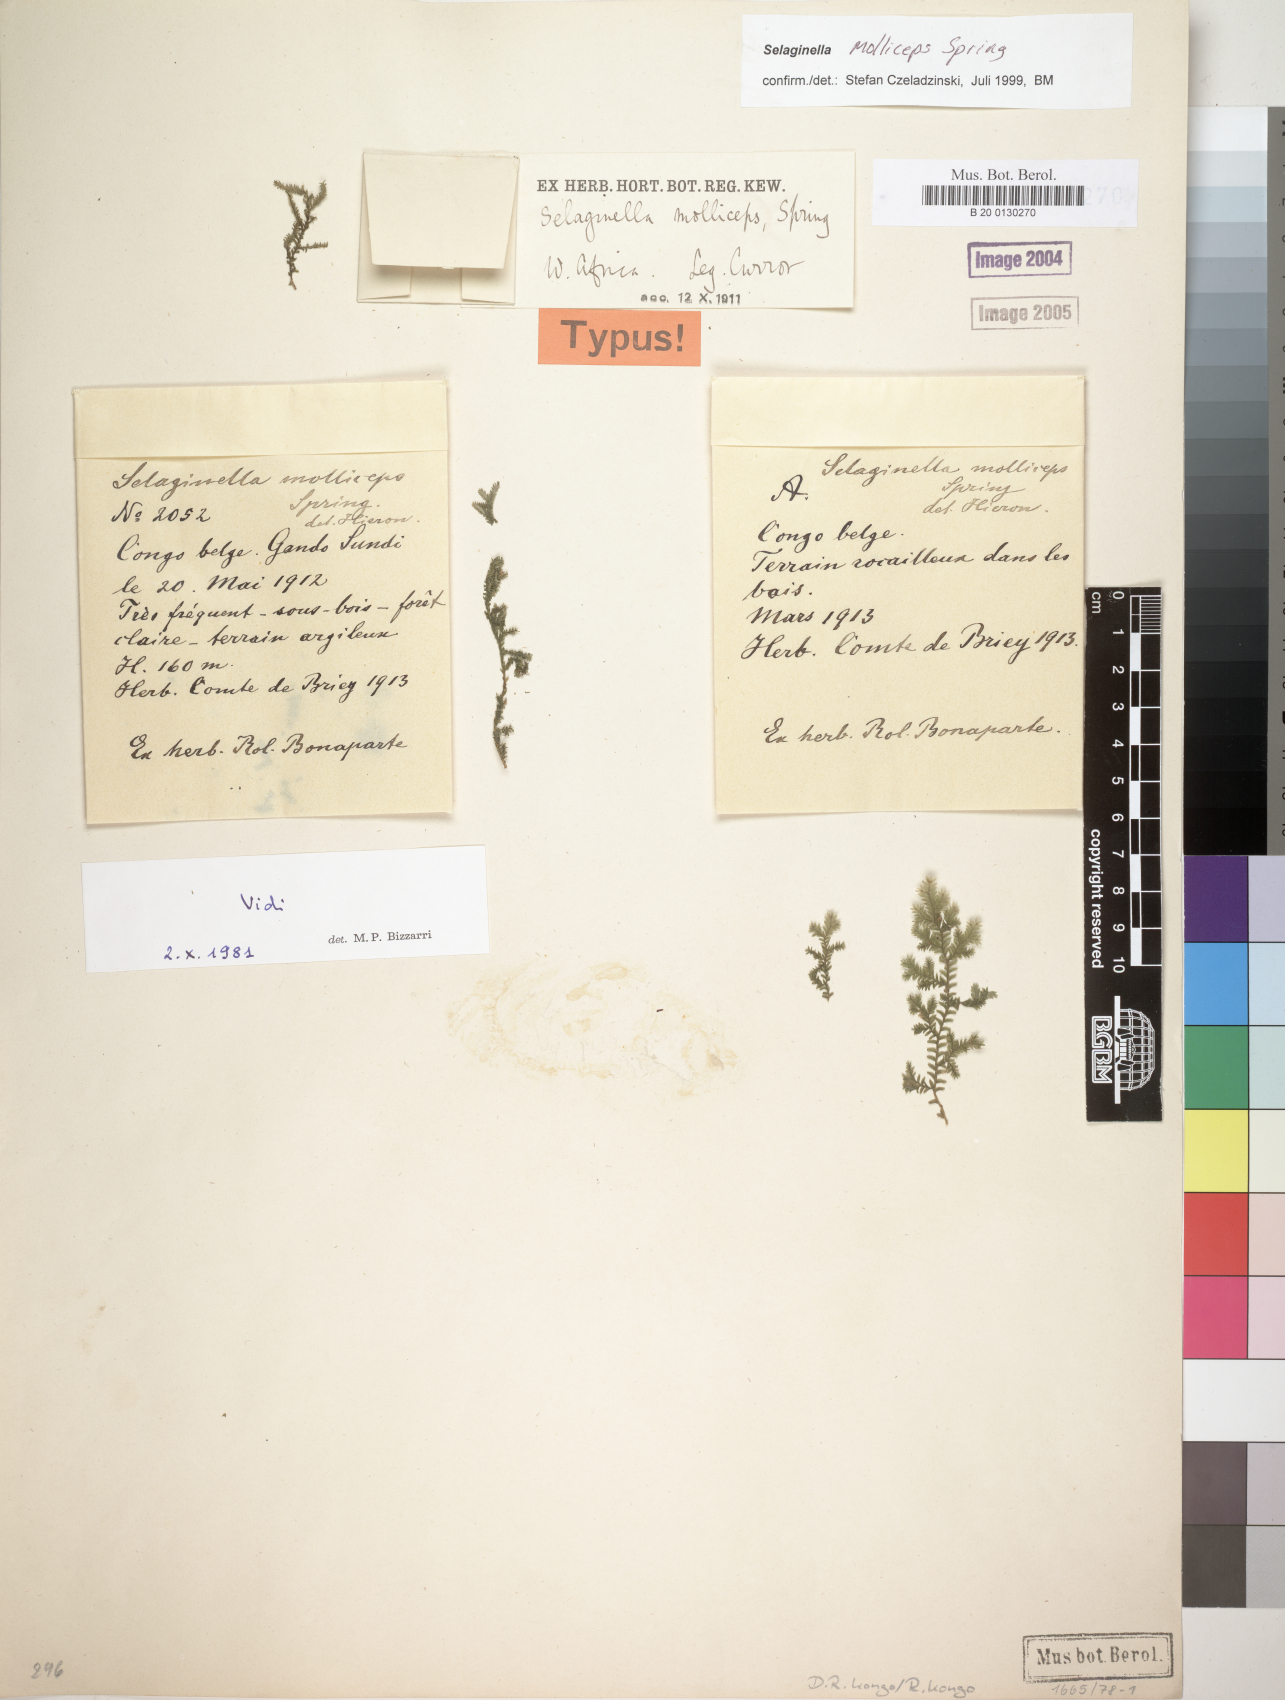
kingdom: Plantae
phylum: Tracheophyta
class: Lycopodiopsida
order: Selaginellales
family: Selaginellaceae
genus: Selaginella
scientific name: Selaginella molliceps
